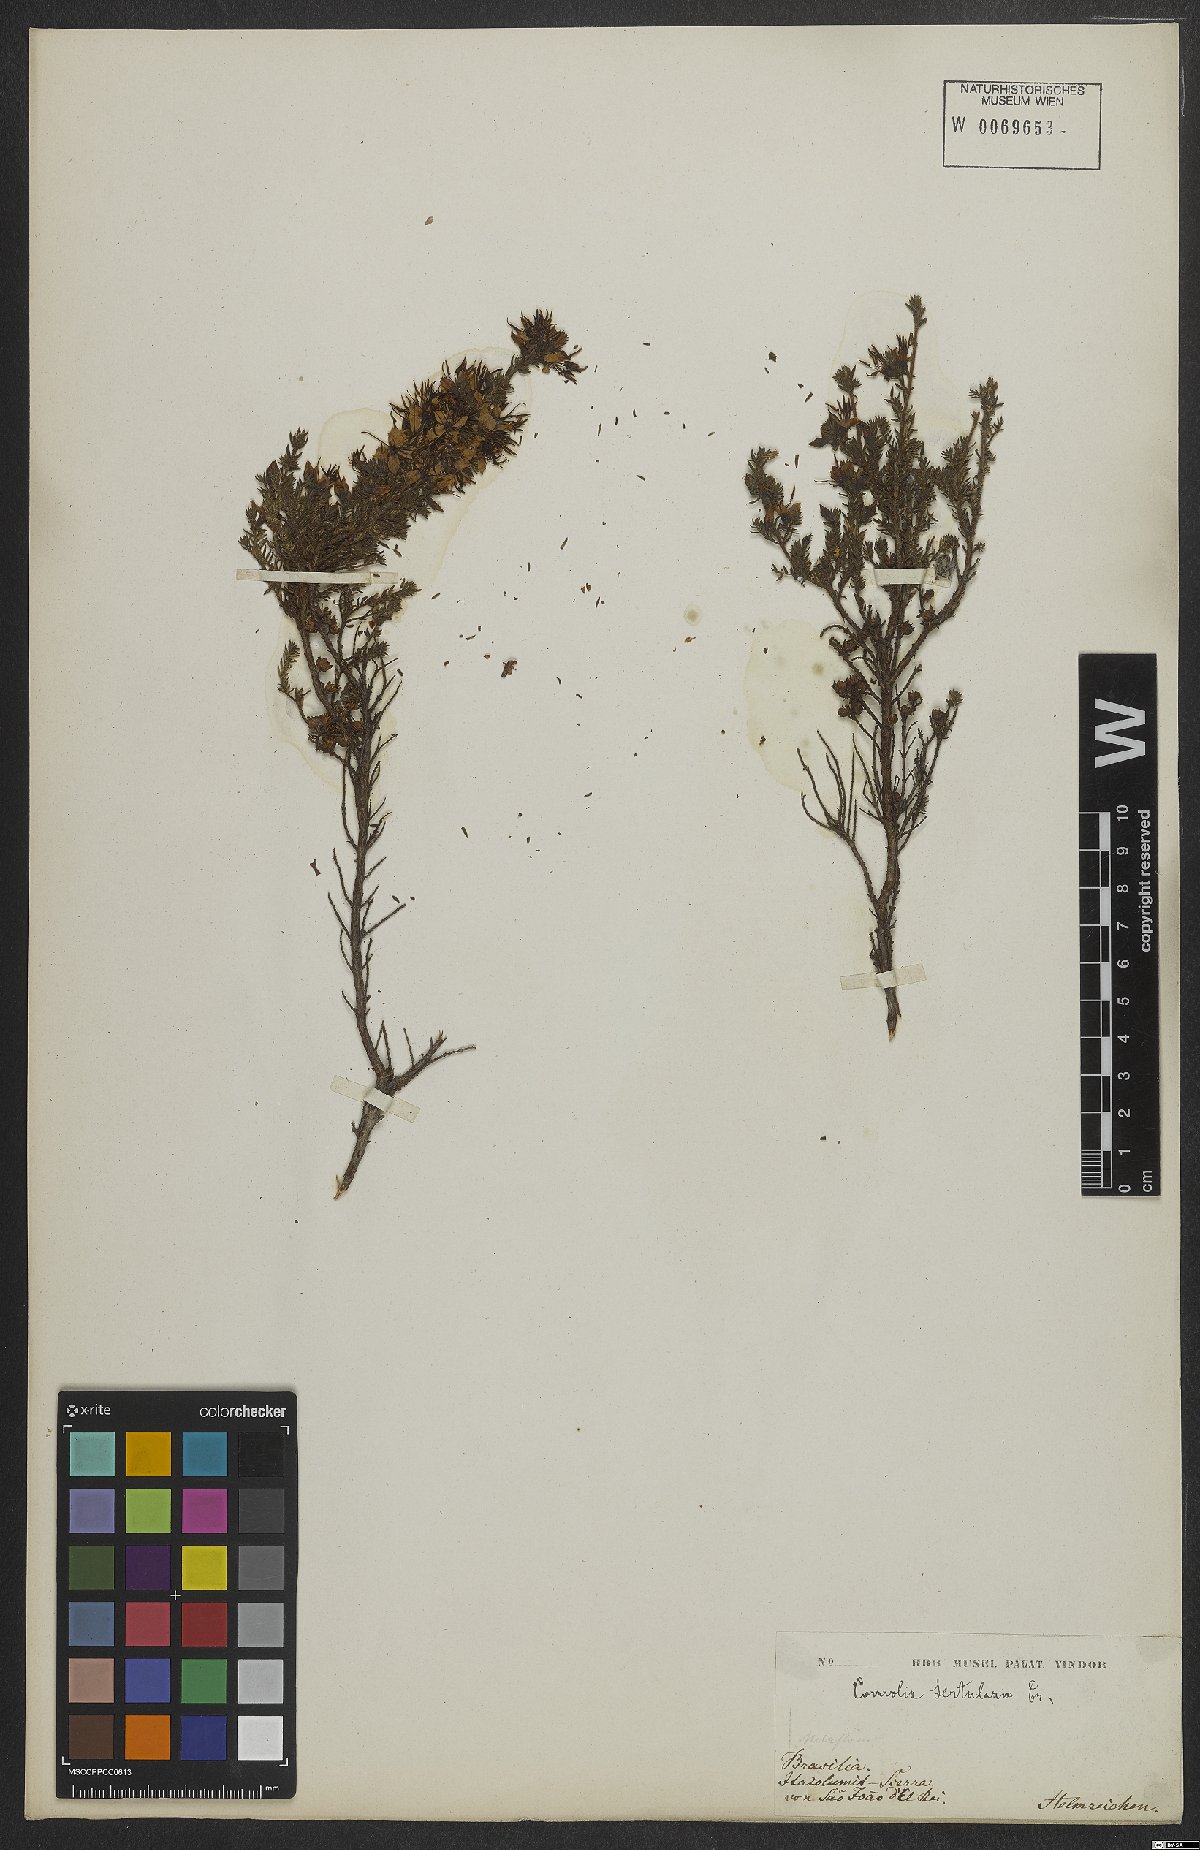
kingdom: Plantae
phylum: Tracheophyta
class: Magnoliopsida
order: Myrtales
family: Melastomataceae
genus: Fritzschia
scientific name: Fritzschia sertularia
